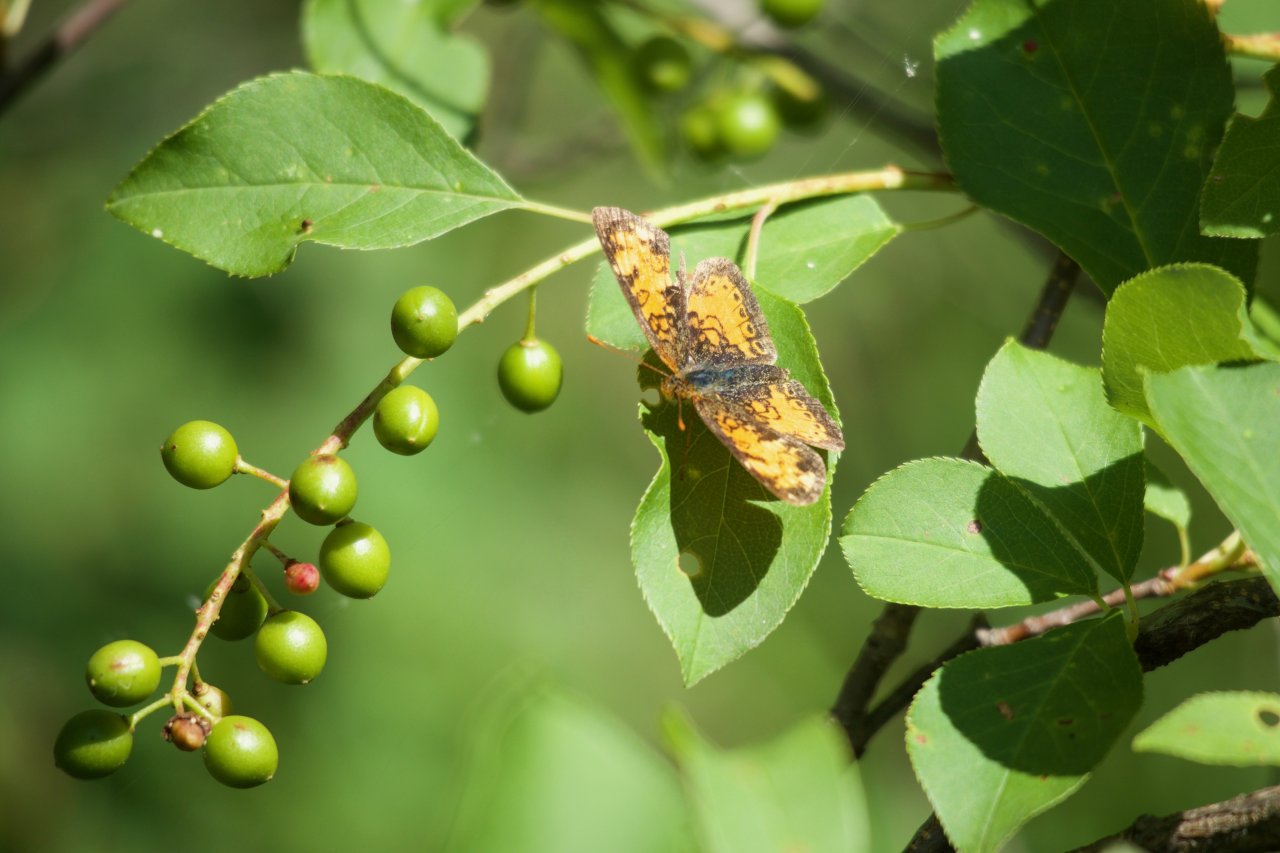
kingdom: Animalia
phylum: Arthropoda
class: Insecta
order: Lepidoptera
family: Nymphalidae
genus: Phyciodes
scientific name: Phyciodes tharos
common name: Northern Crescent
